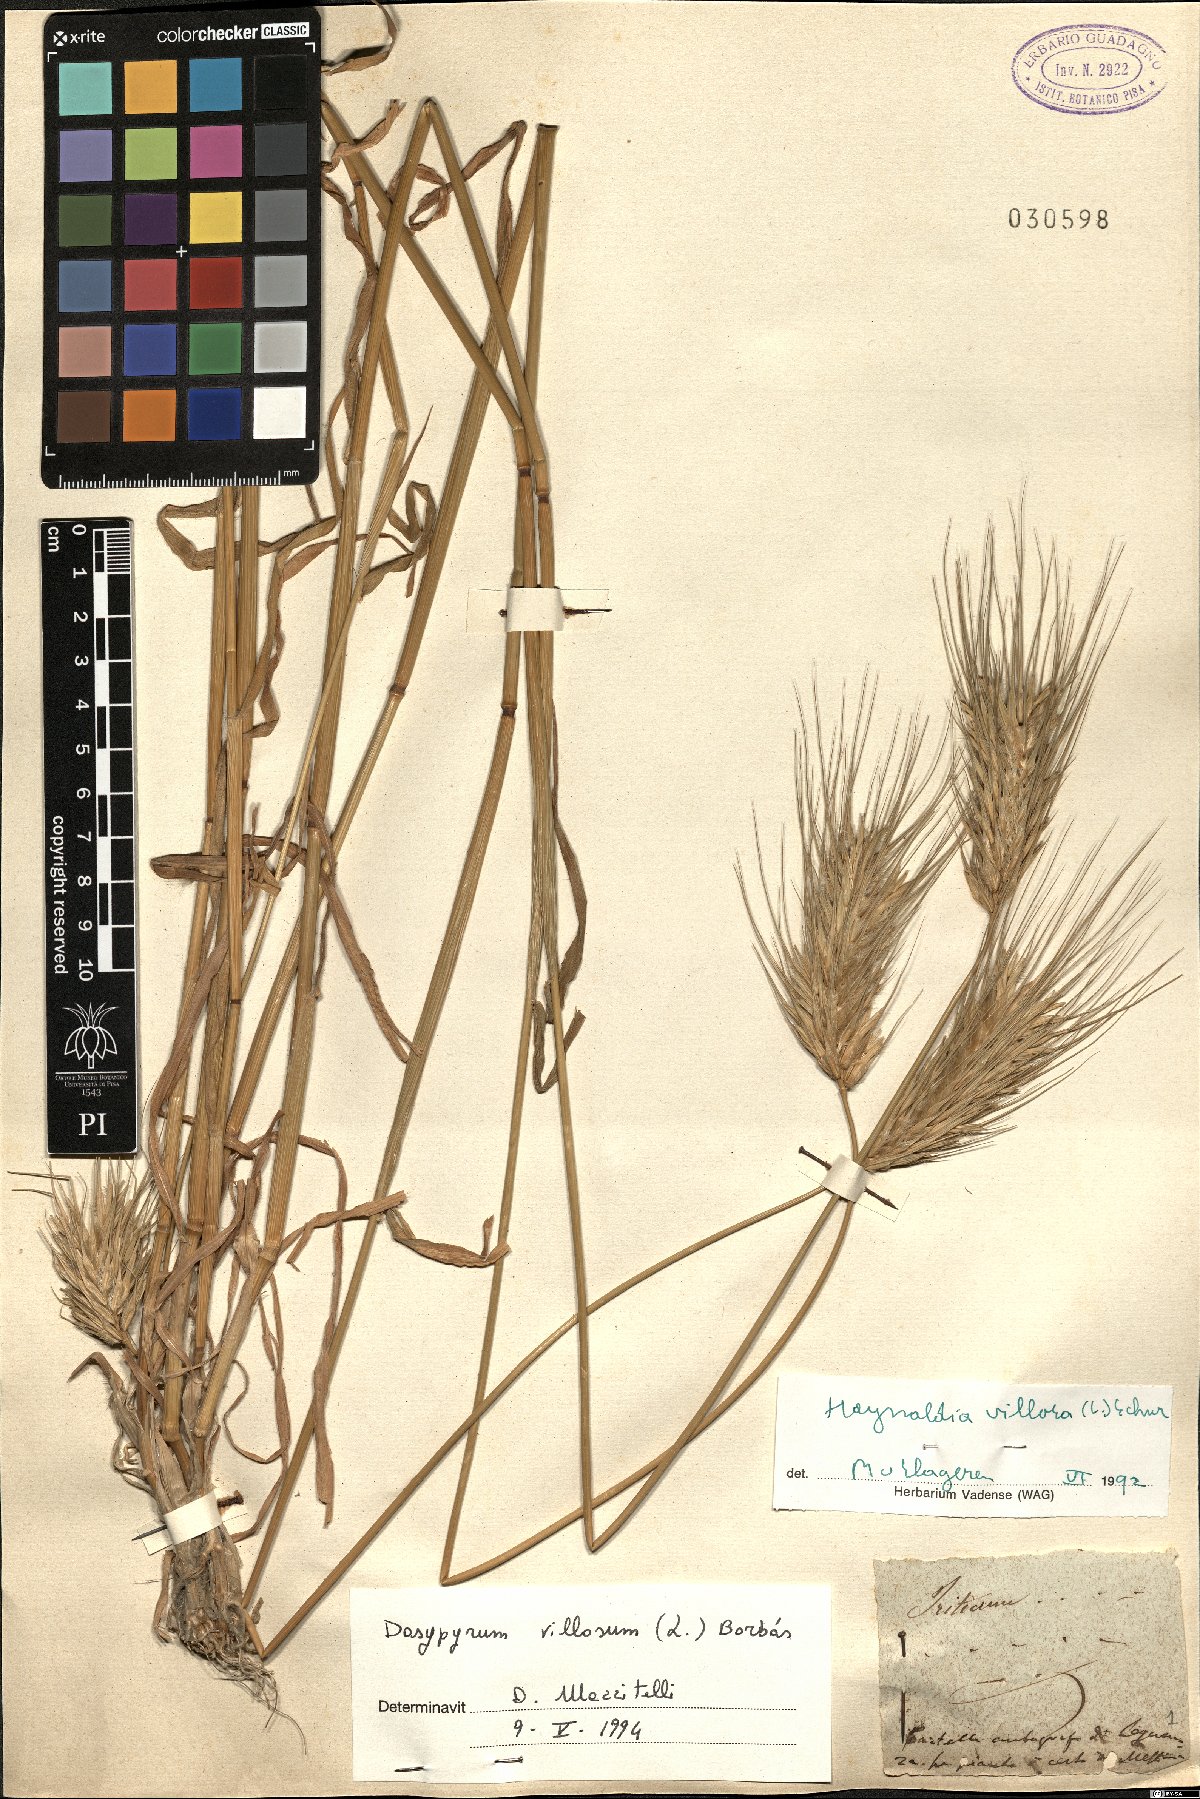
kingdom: Plantae
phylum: Tracheophyta
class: Liliopsida
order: Poales
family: Poaceae
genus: Dasypyrum
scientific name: Dasypyrum villosum
